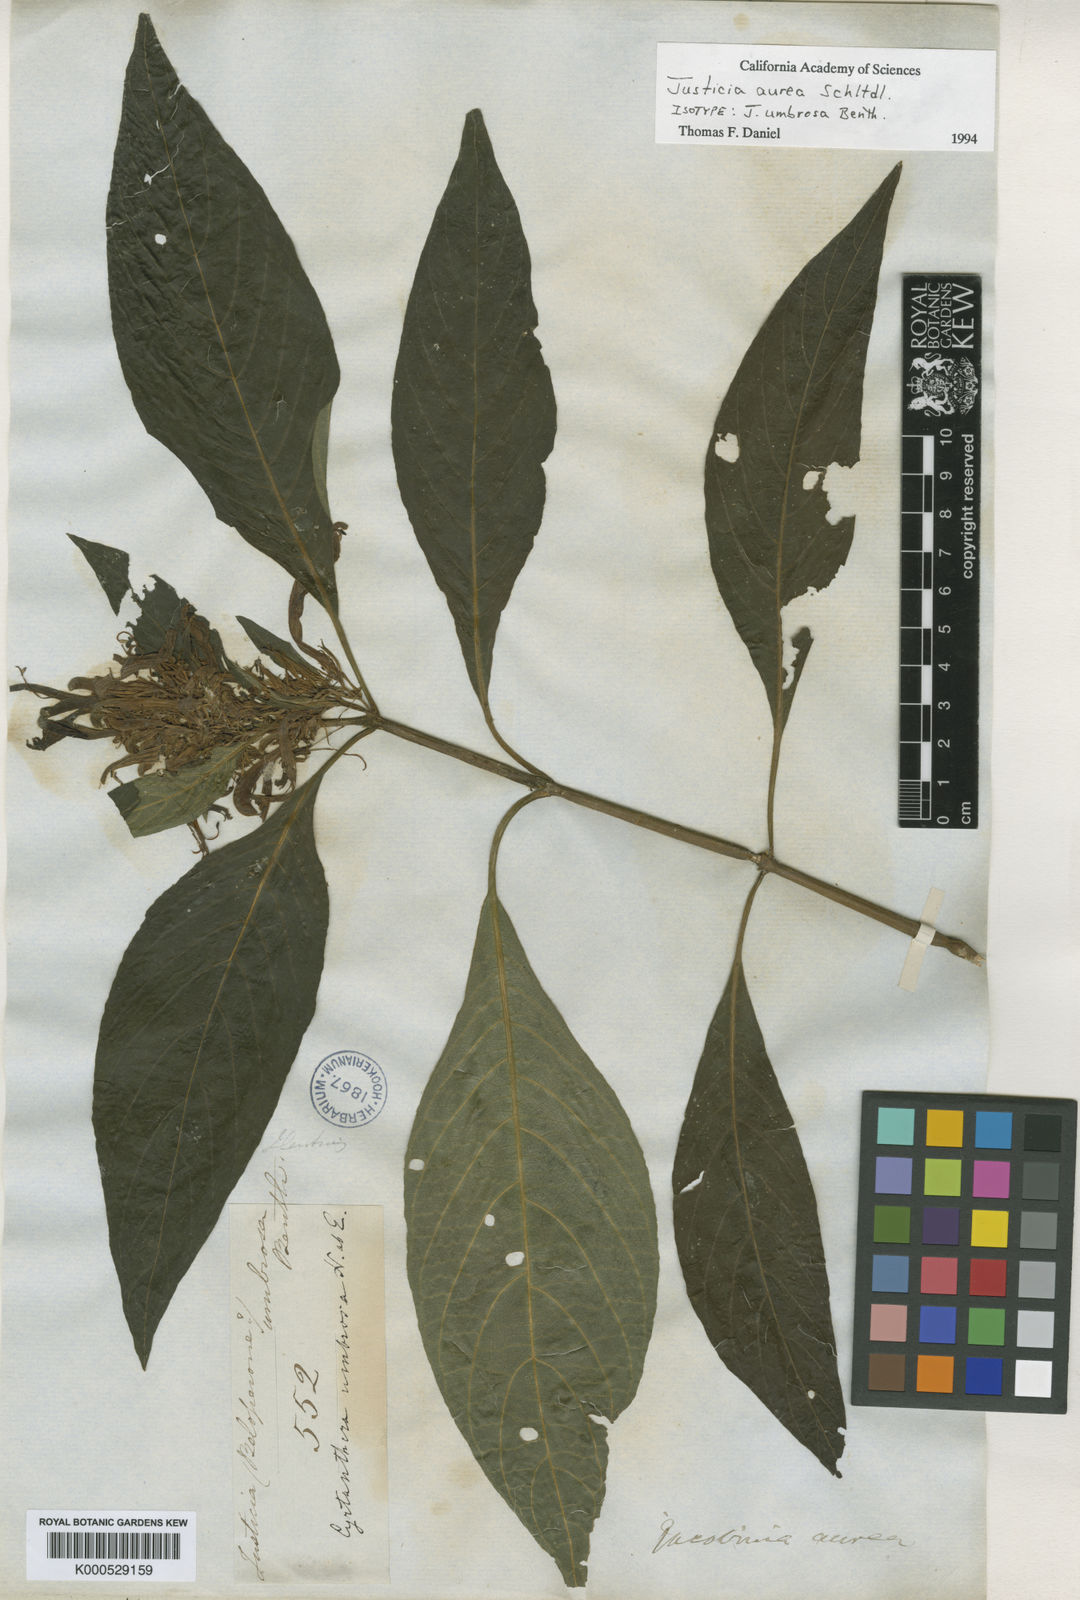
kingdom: Plantae
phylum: Tracheophyta
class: Magnoliopsida
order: Lamiales
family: Acanthaceae
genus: Justicia
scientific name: Justicia aurea
